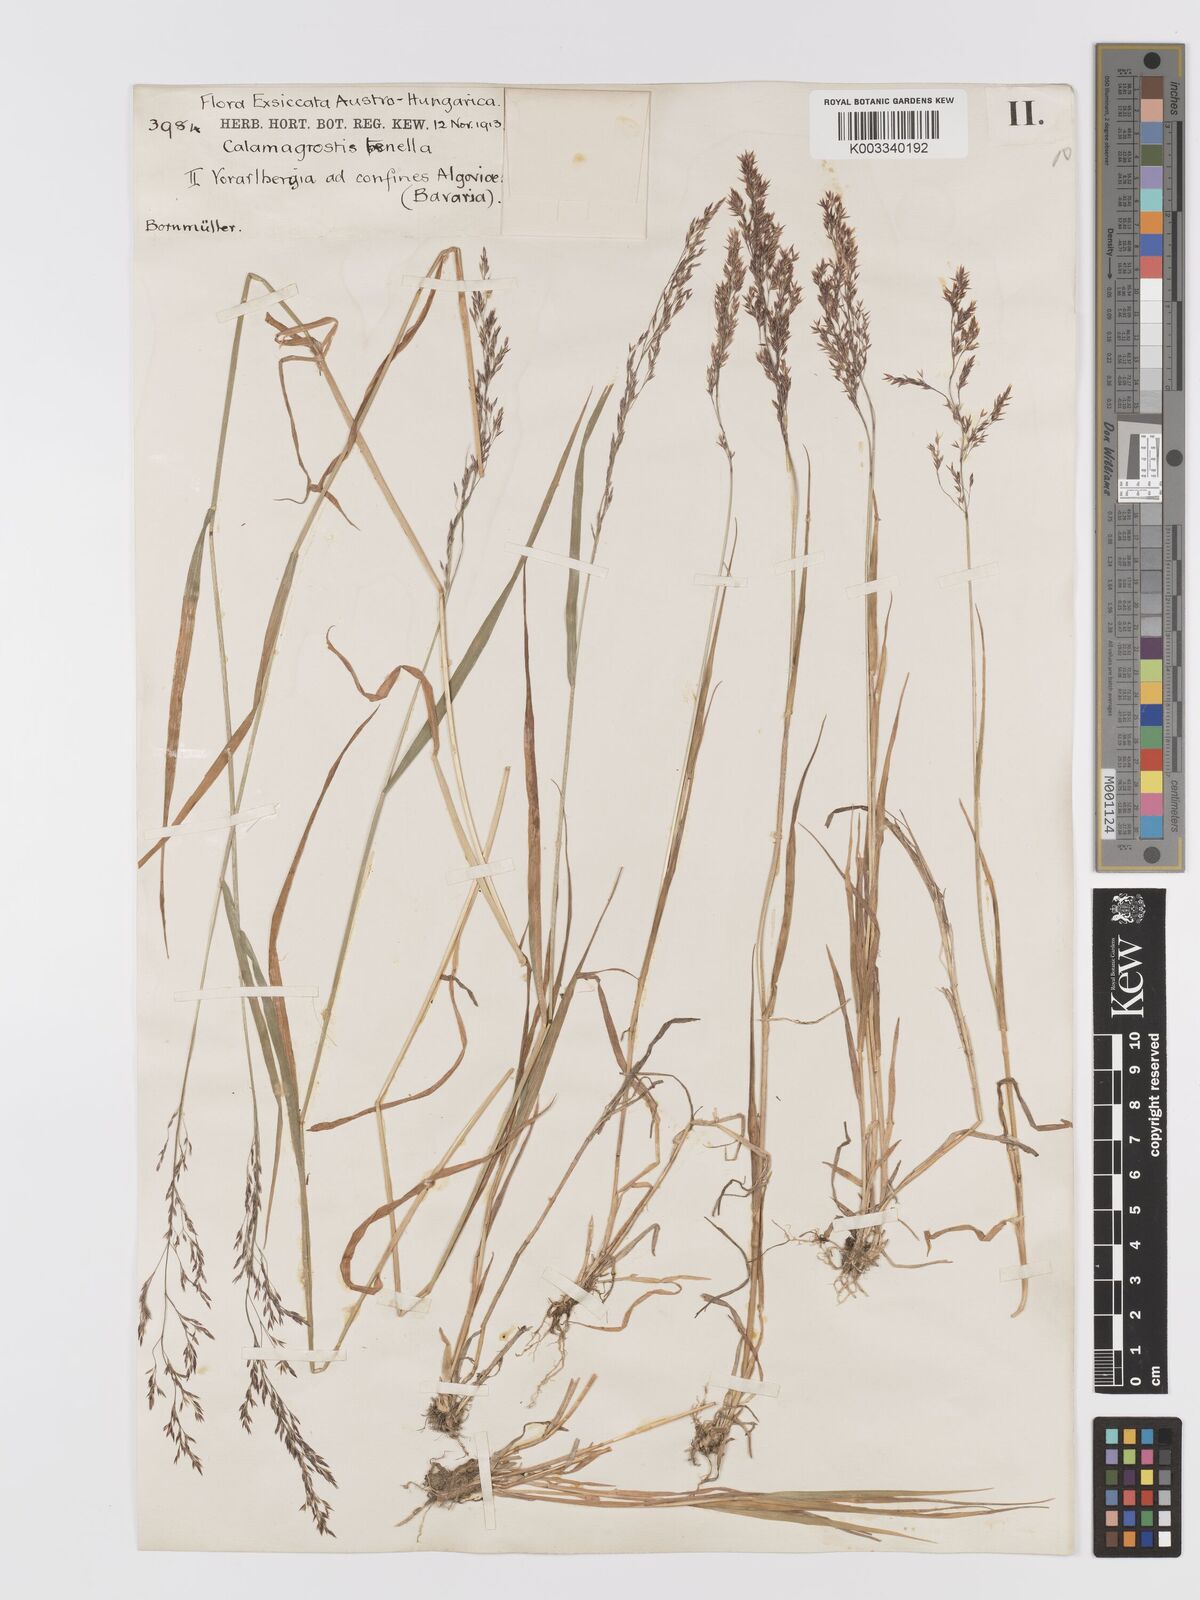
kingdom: Plantae
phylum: Tracheophyta
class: Liliopsida
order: Poales
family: Poaceae
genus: Agrostis
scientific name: Agrostis schraderiana
